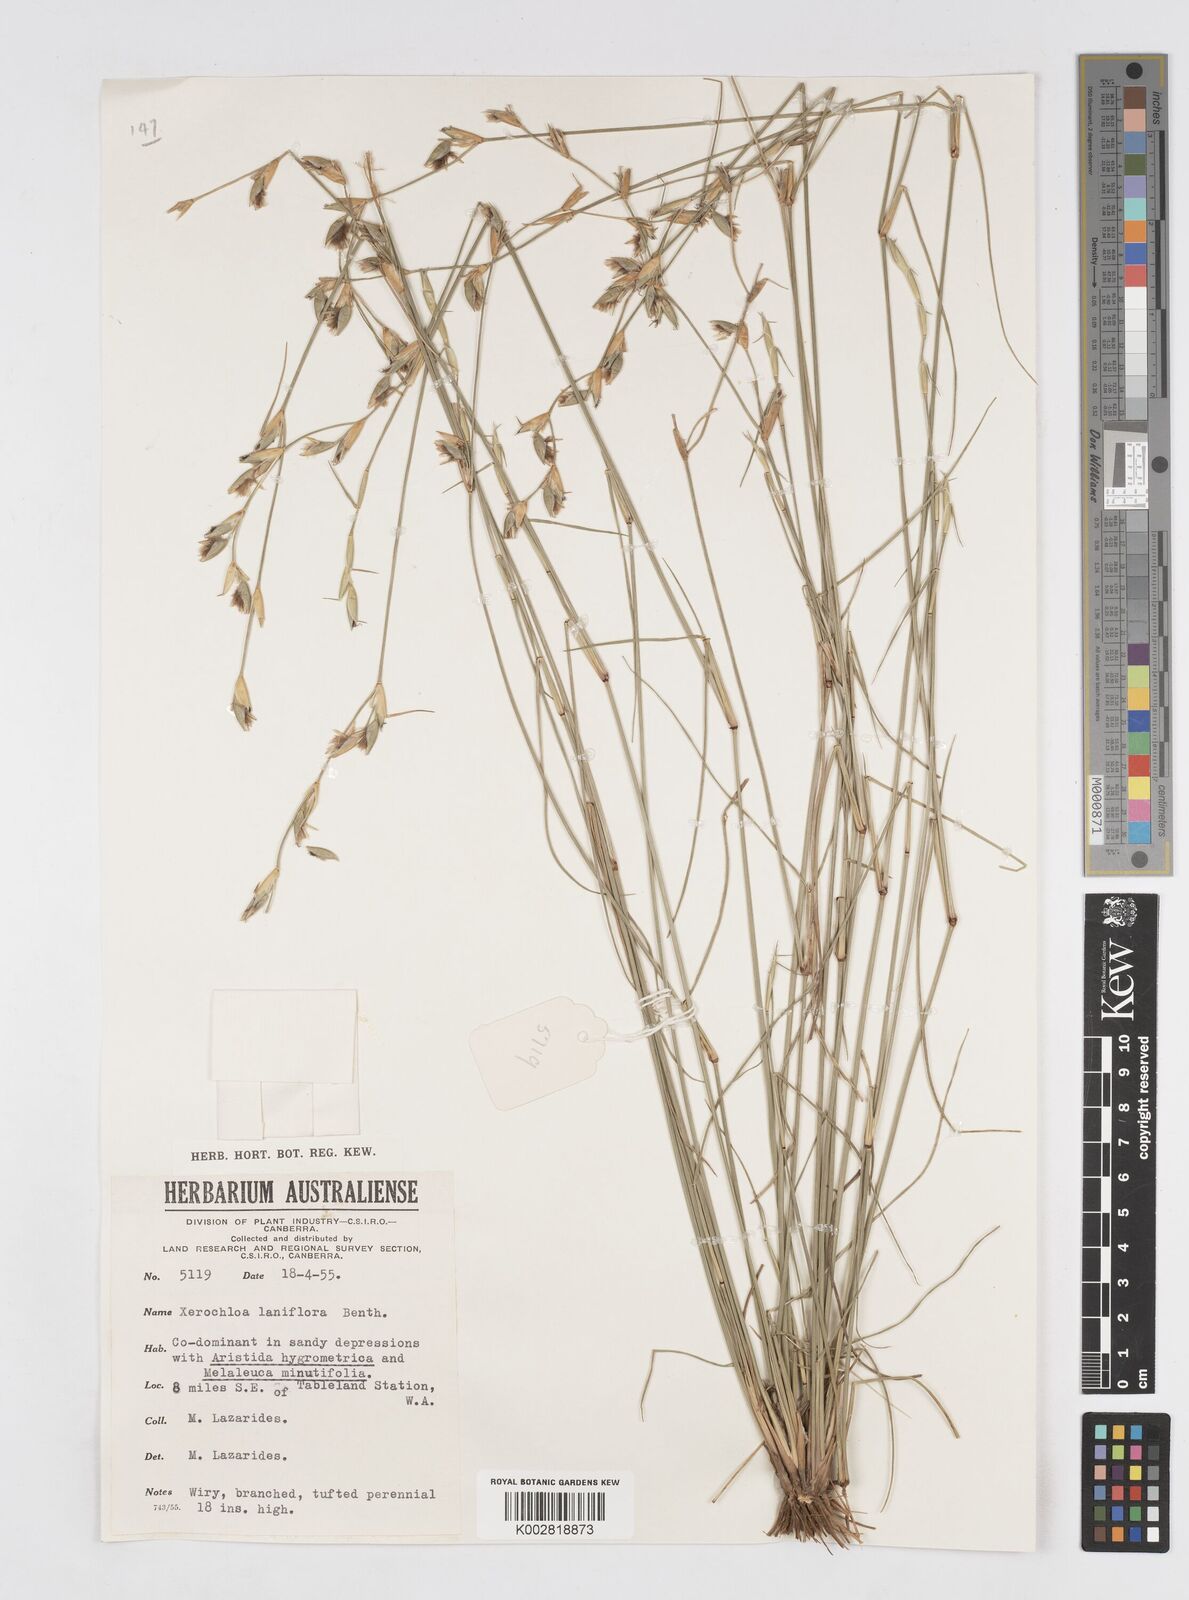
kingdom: Plantae
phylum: Tracheophyta
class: Liliopsida
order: Poales
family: Poaceae
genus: Xerochloa
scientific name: Xerochloa laniflora
